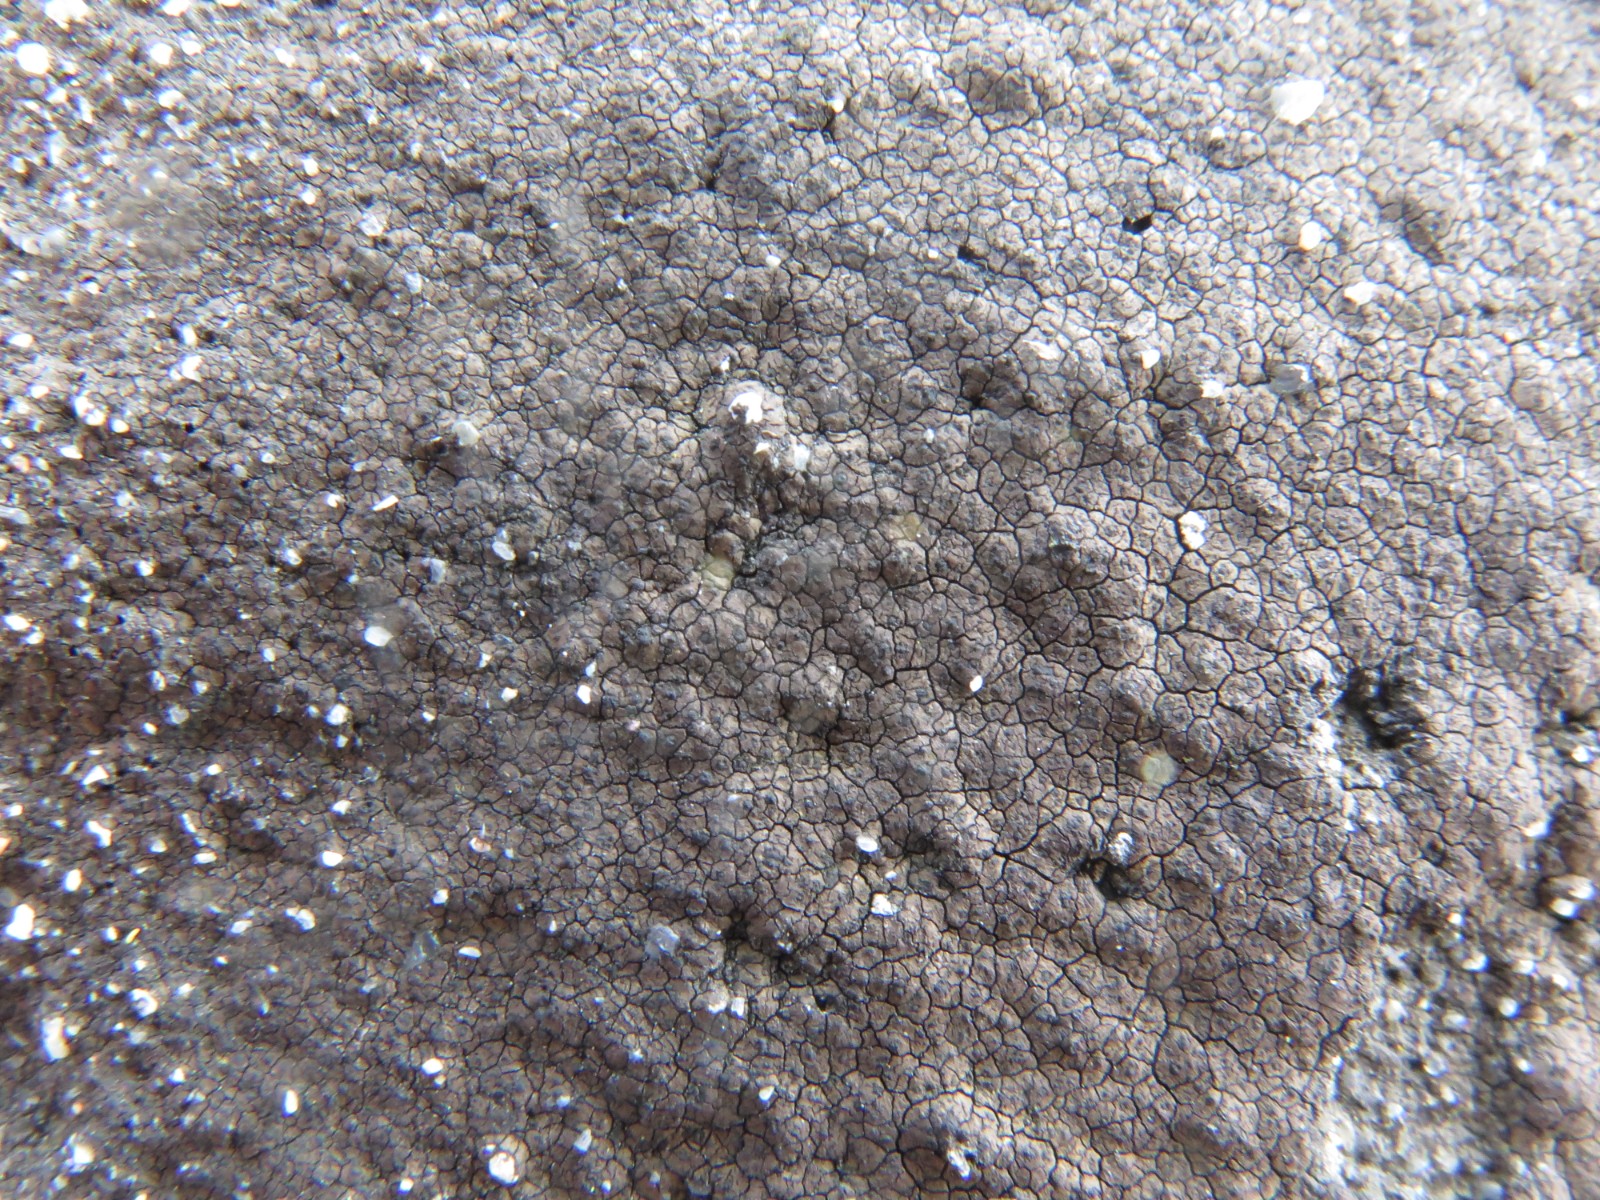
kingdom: Fungi
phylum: Ascomycota
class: Eurotiomycetes
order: Verrucariales
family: Verrucariaceae
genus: Verrucaria
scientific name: Verrucaria nigrescens
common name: sortbrun vortelav
